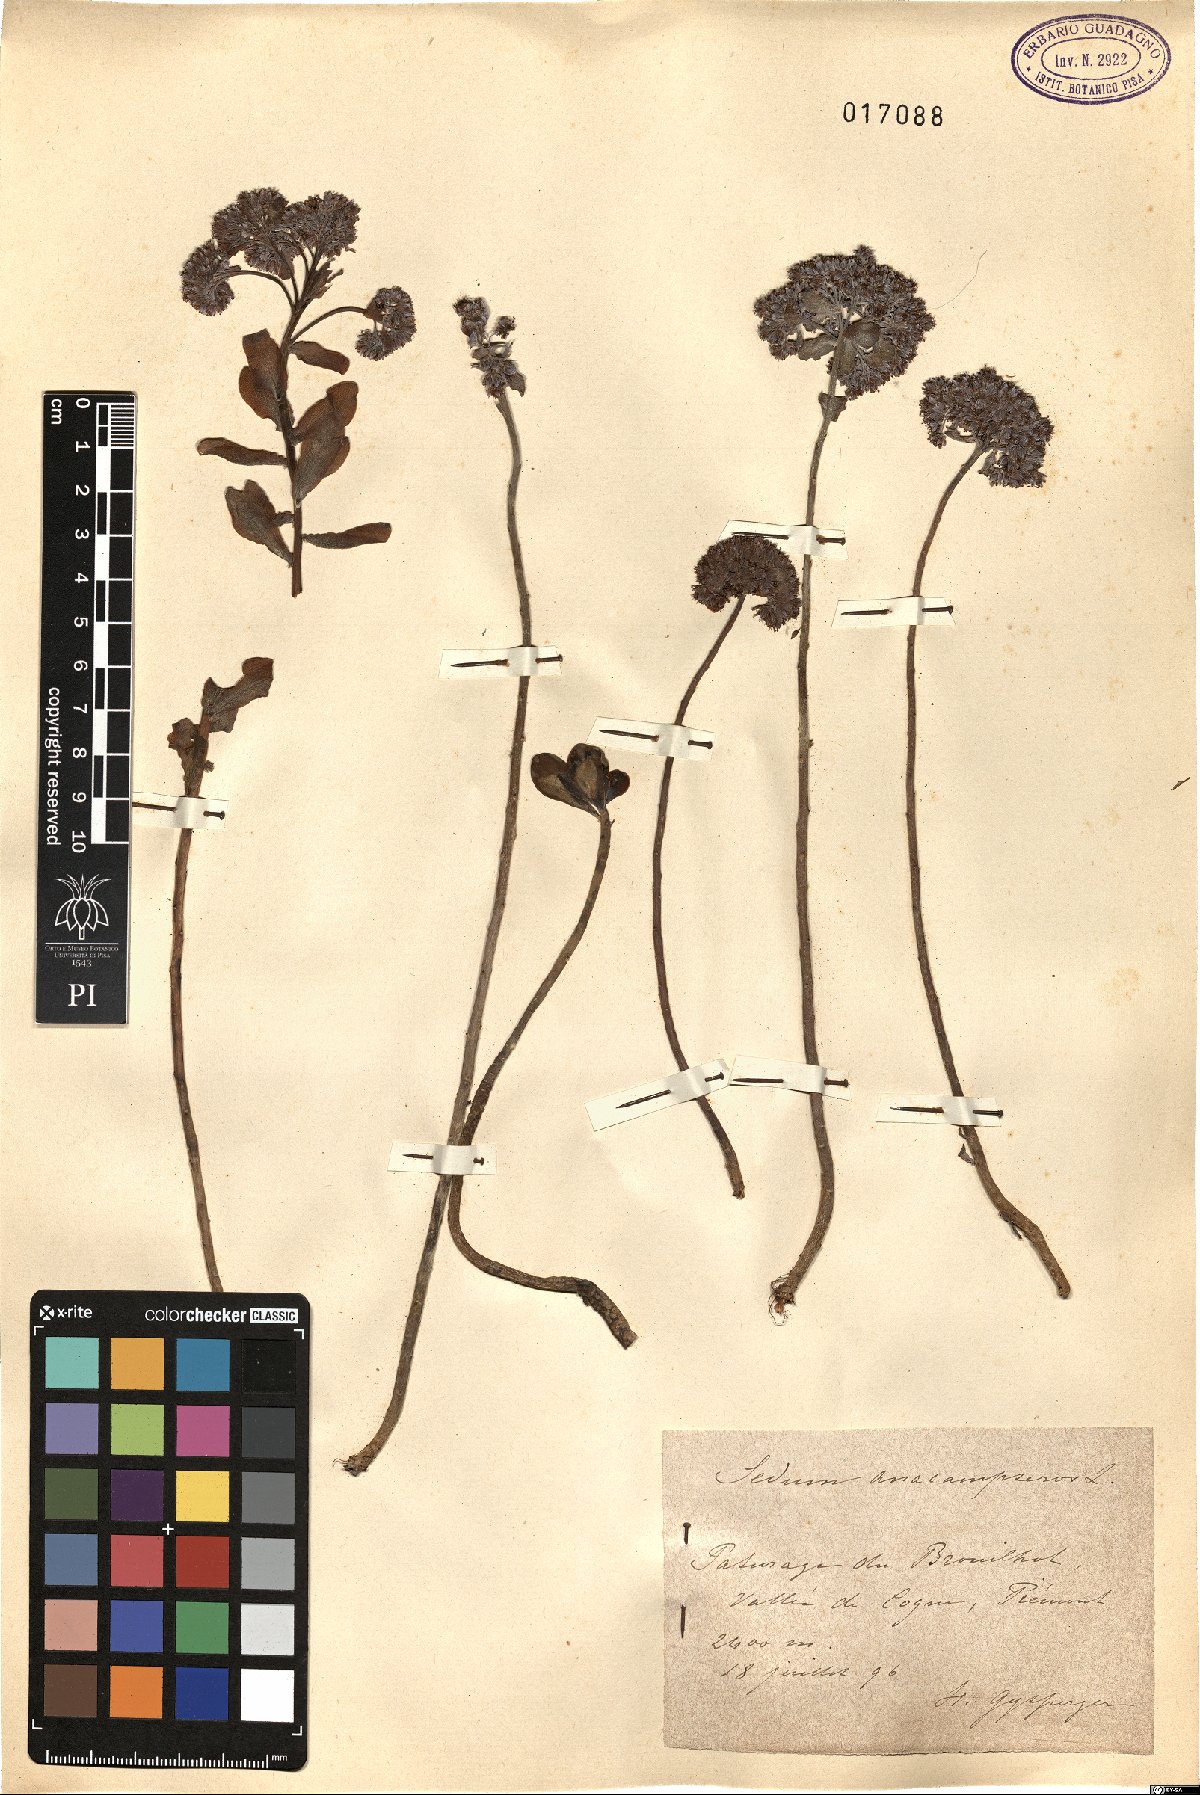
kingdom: Plantae
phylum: Tracheophyta
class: Magnoliopsida
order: Saxifragales
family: Crassulaceae
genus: Hylotelephium
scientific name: Hylotelephium anacampseros
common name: Love-restorer
